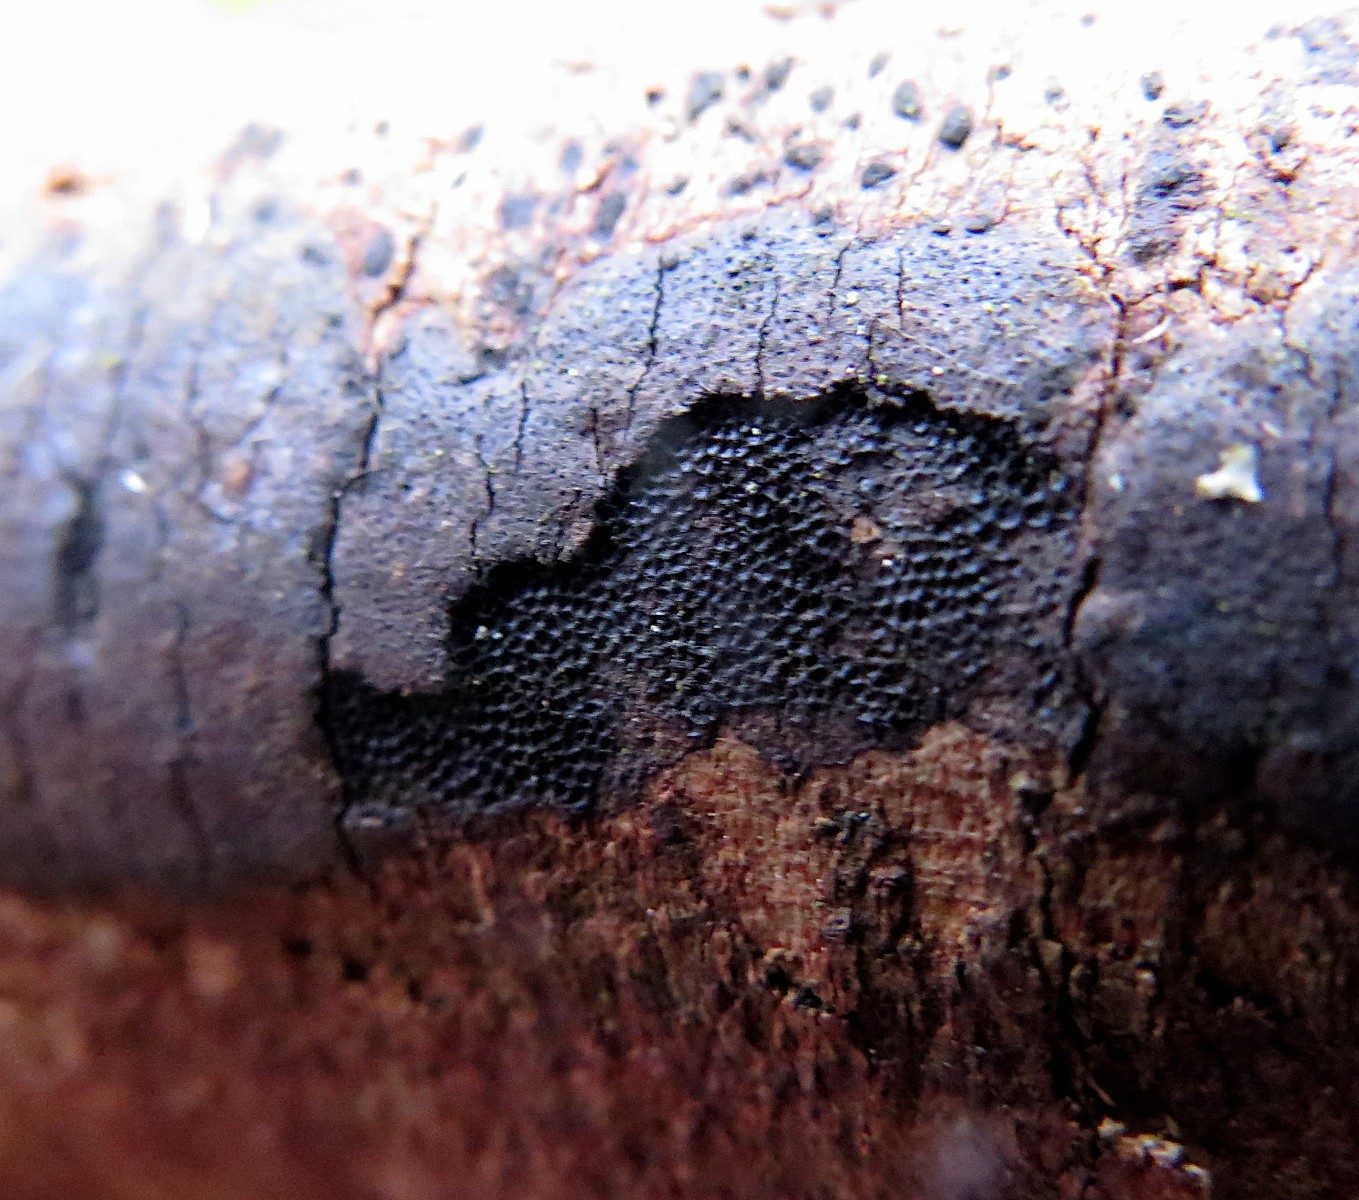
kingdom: Fungi
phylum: Ascomycota
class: Sordariomycetes
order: Xylariales
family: Diatrypaceae
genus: Diatrype
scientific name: Diatrype decorticata
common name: barksprænger-kulskorpe
